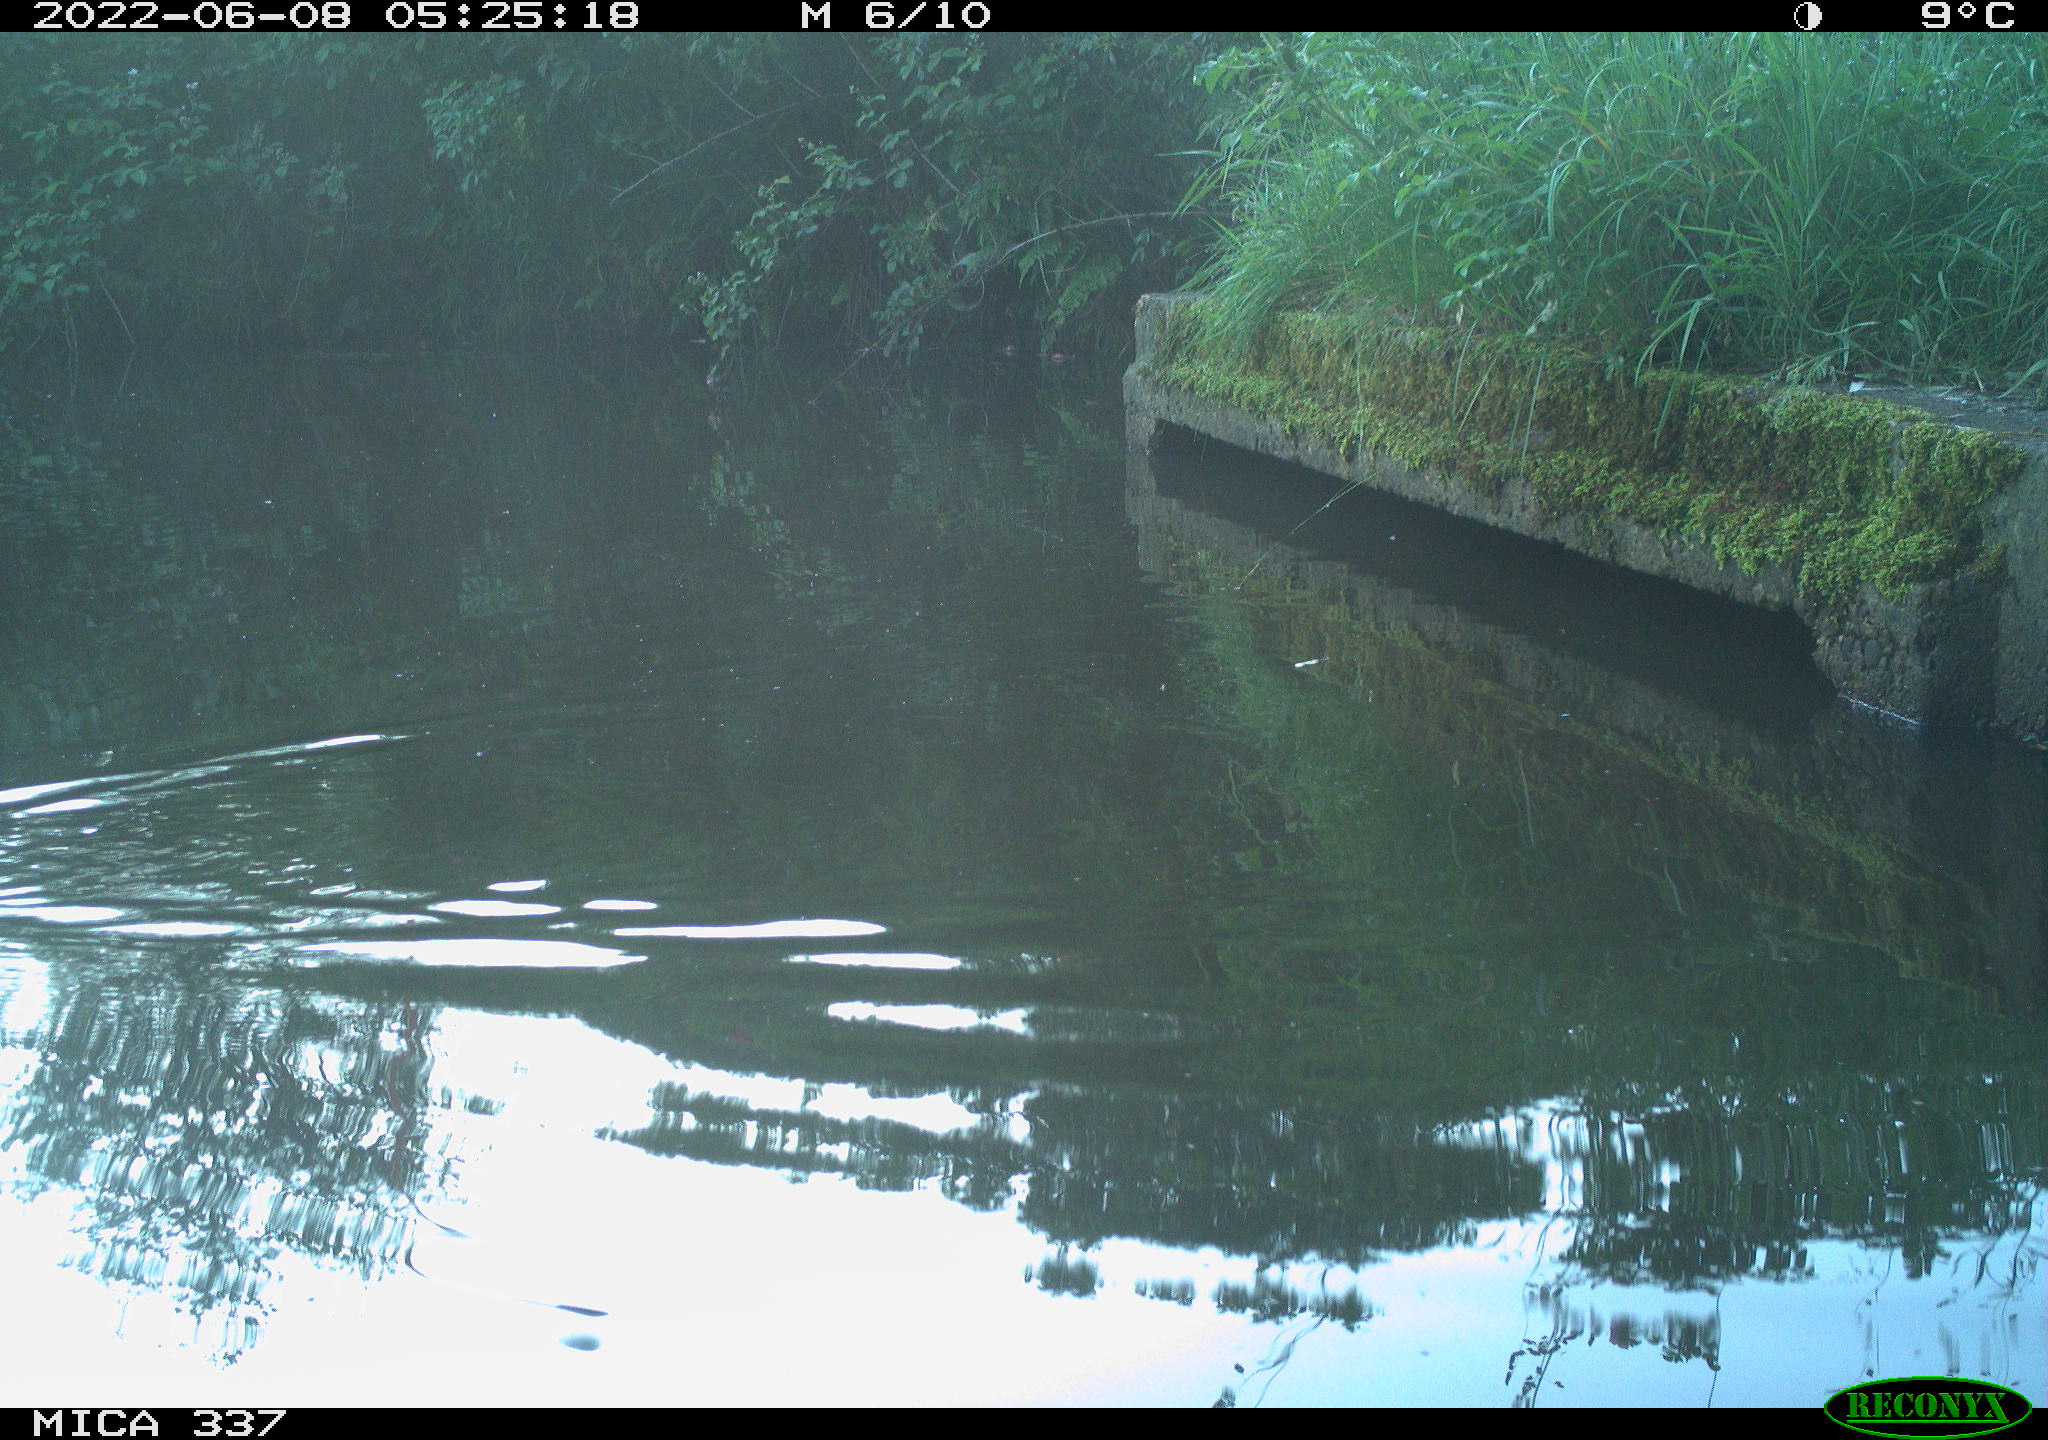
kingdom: Animalia
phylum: Chordata
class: Aves
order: Gruiformes
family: Rallidae
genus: Gallinula
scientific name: Gallinula chloropus
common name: Common moorhen
